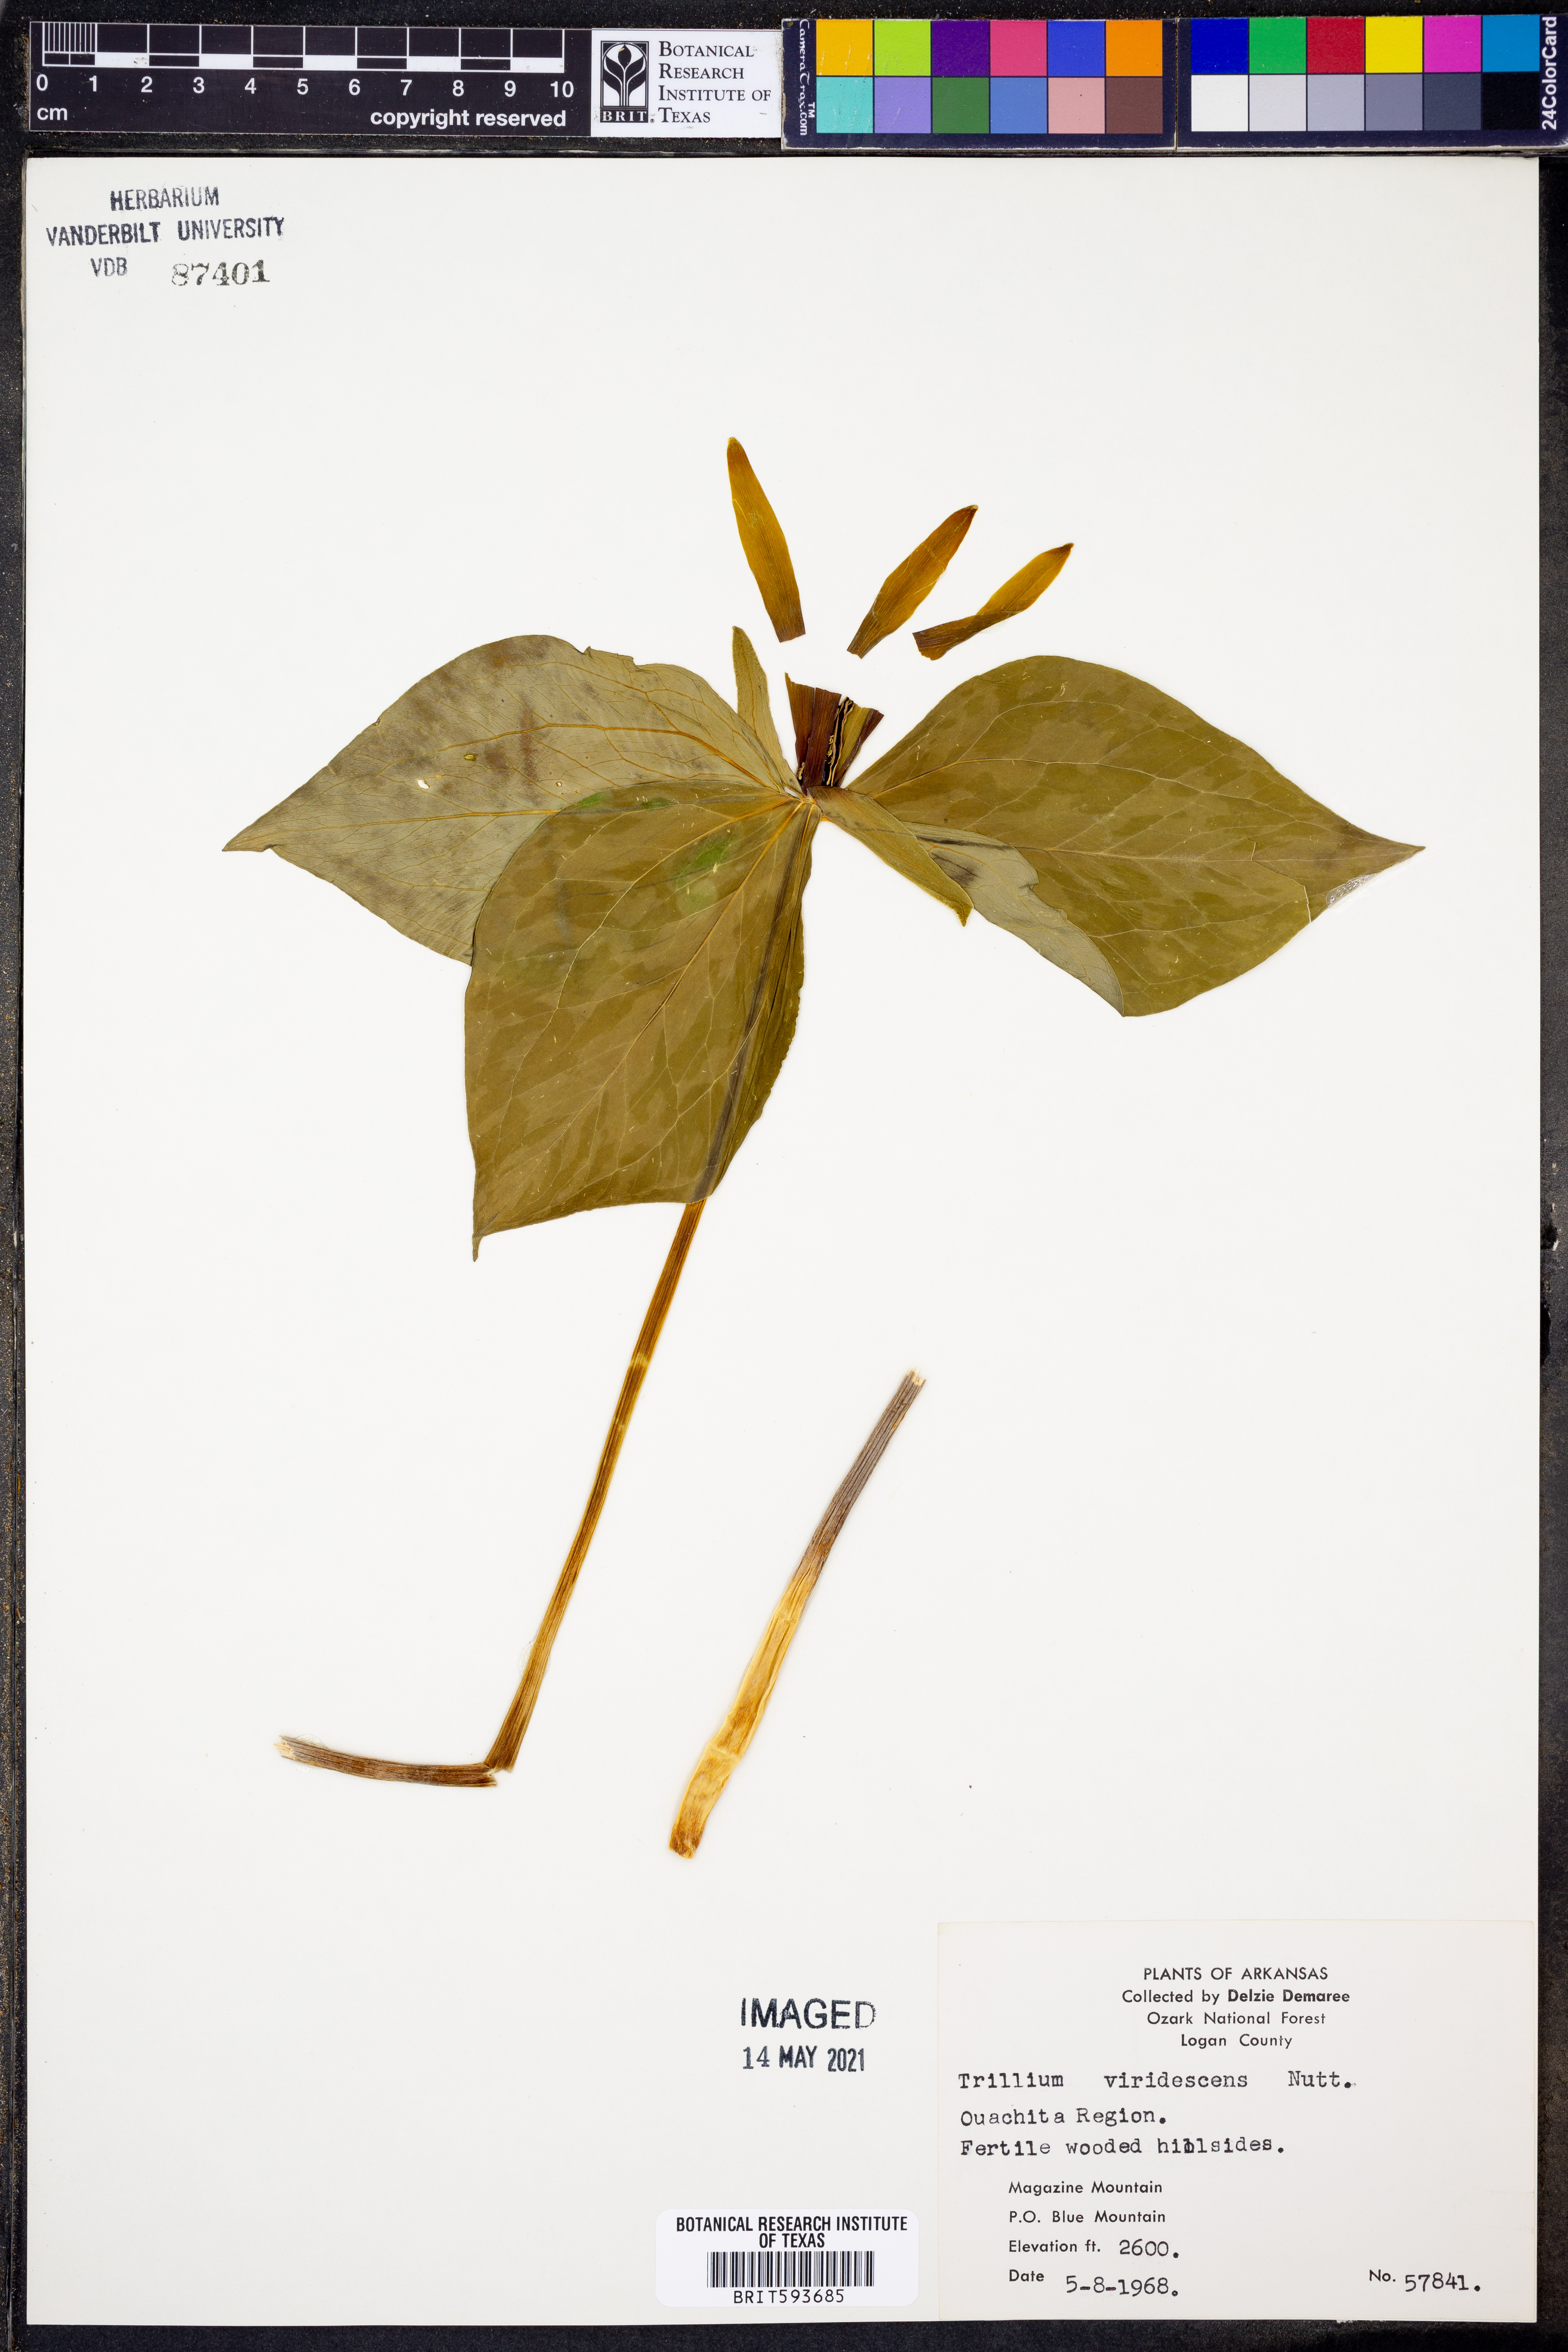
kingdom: Plantae
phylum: Tracheophyta
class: Liliopsida
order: Liliales
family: Melanthiaceae
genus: Trillium
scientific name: Trillium viridescens
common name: Ozark green trillium
